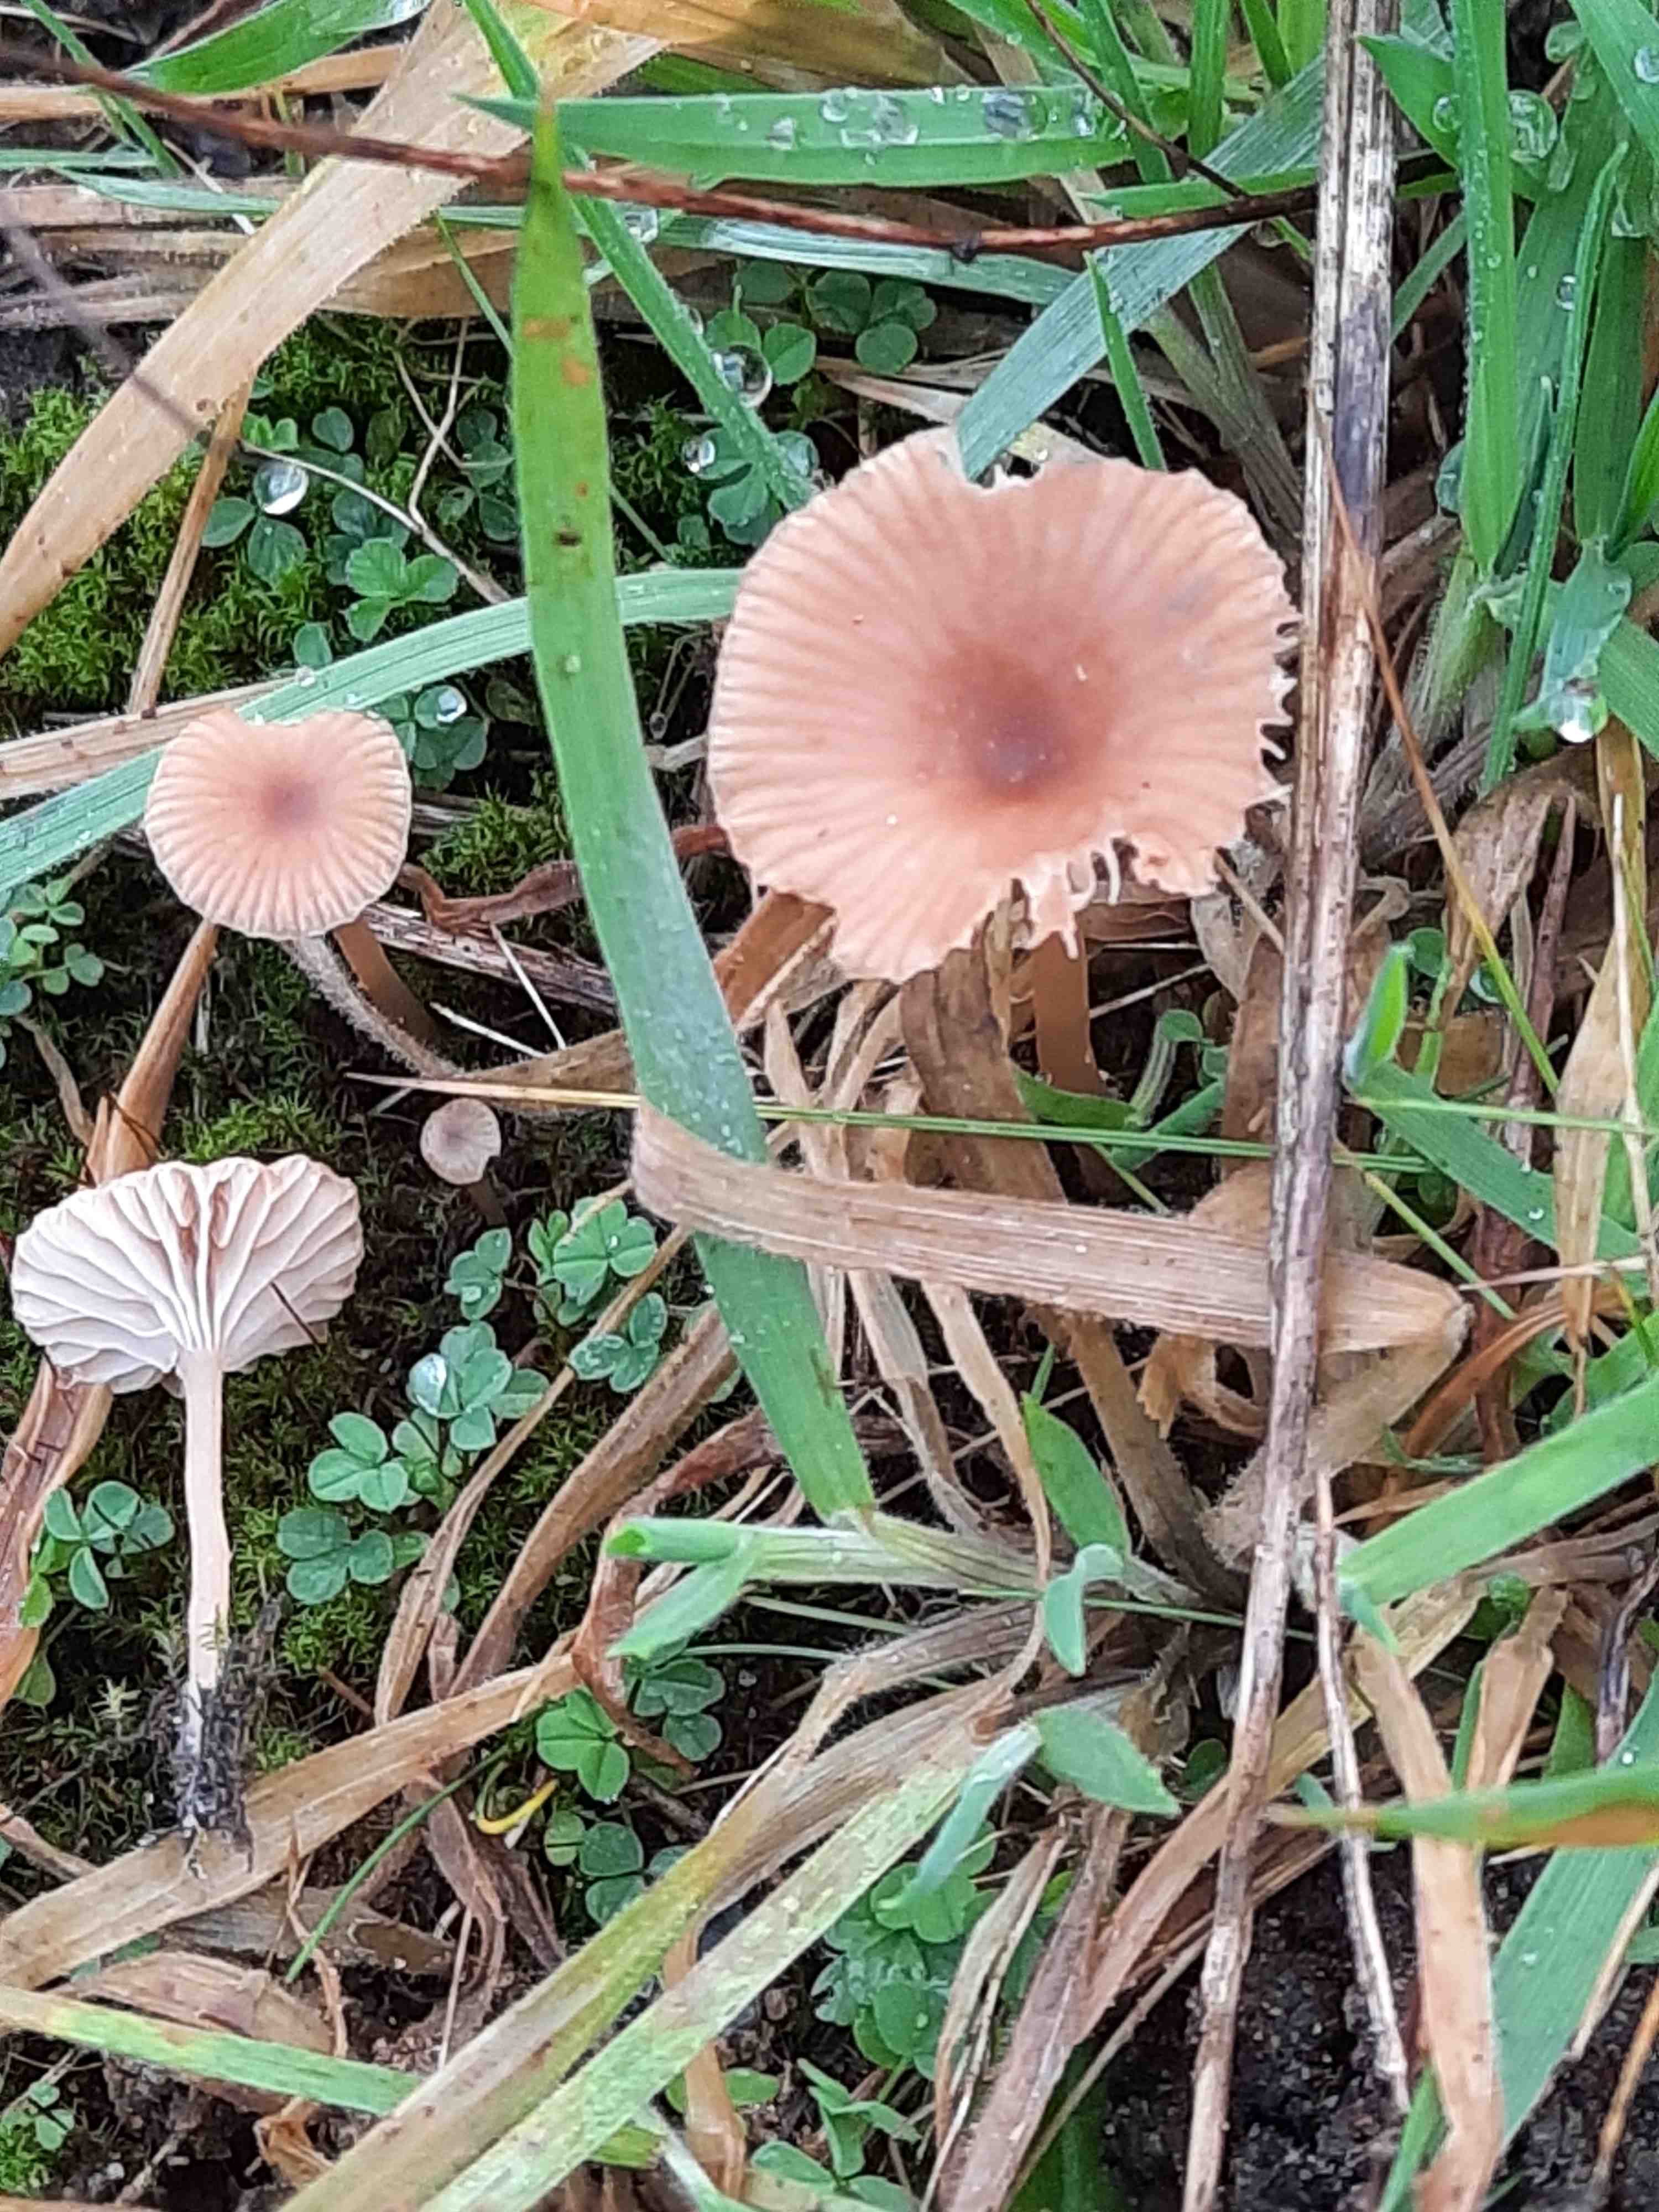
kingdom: Fungi
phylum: Basidiomycota
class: Agaricomycetes
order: Agaricales
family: Tricholomataceae
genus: Omphalina
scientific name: Omphalina pyxidata
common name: rødbrun navlehat
